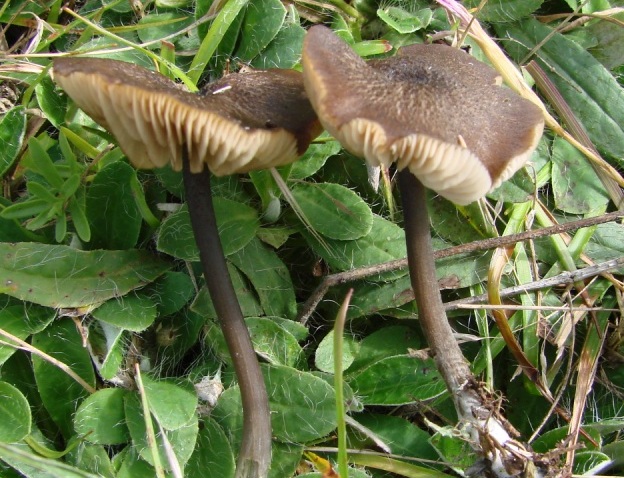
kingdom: Fungi
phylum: Basidiomycota
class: Agaricomycetes
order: Agaricales
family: Entolomataceae
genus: Entoloma
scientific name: Entoloma asprellum
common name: ru rødblad
